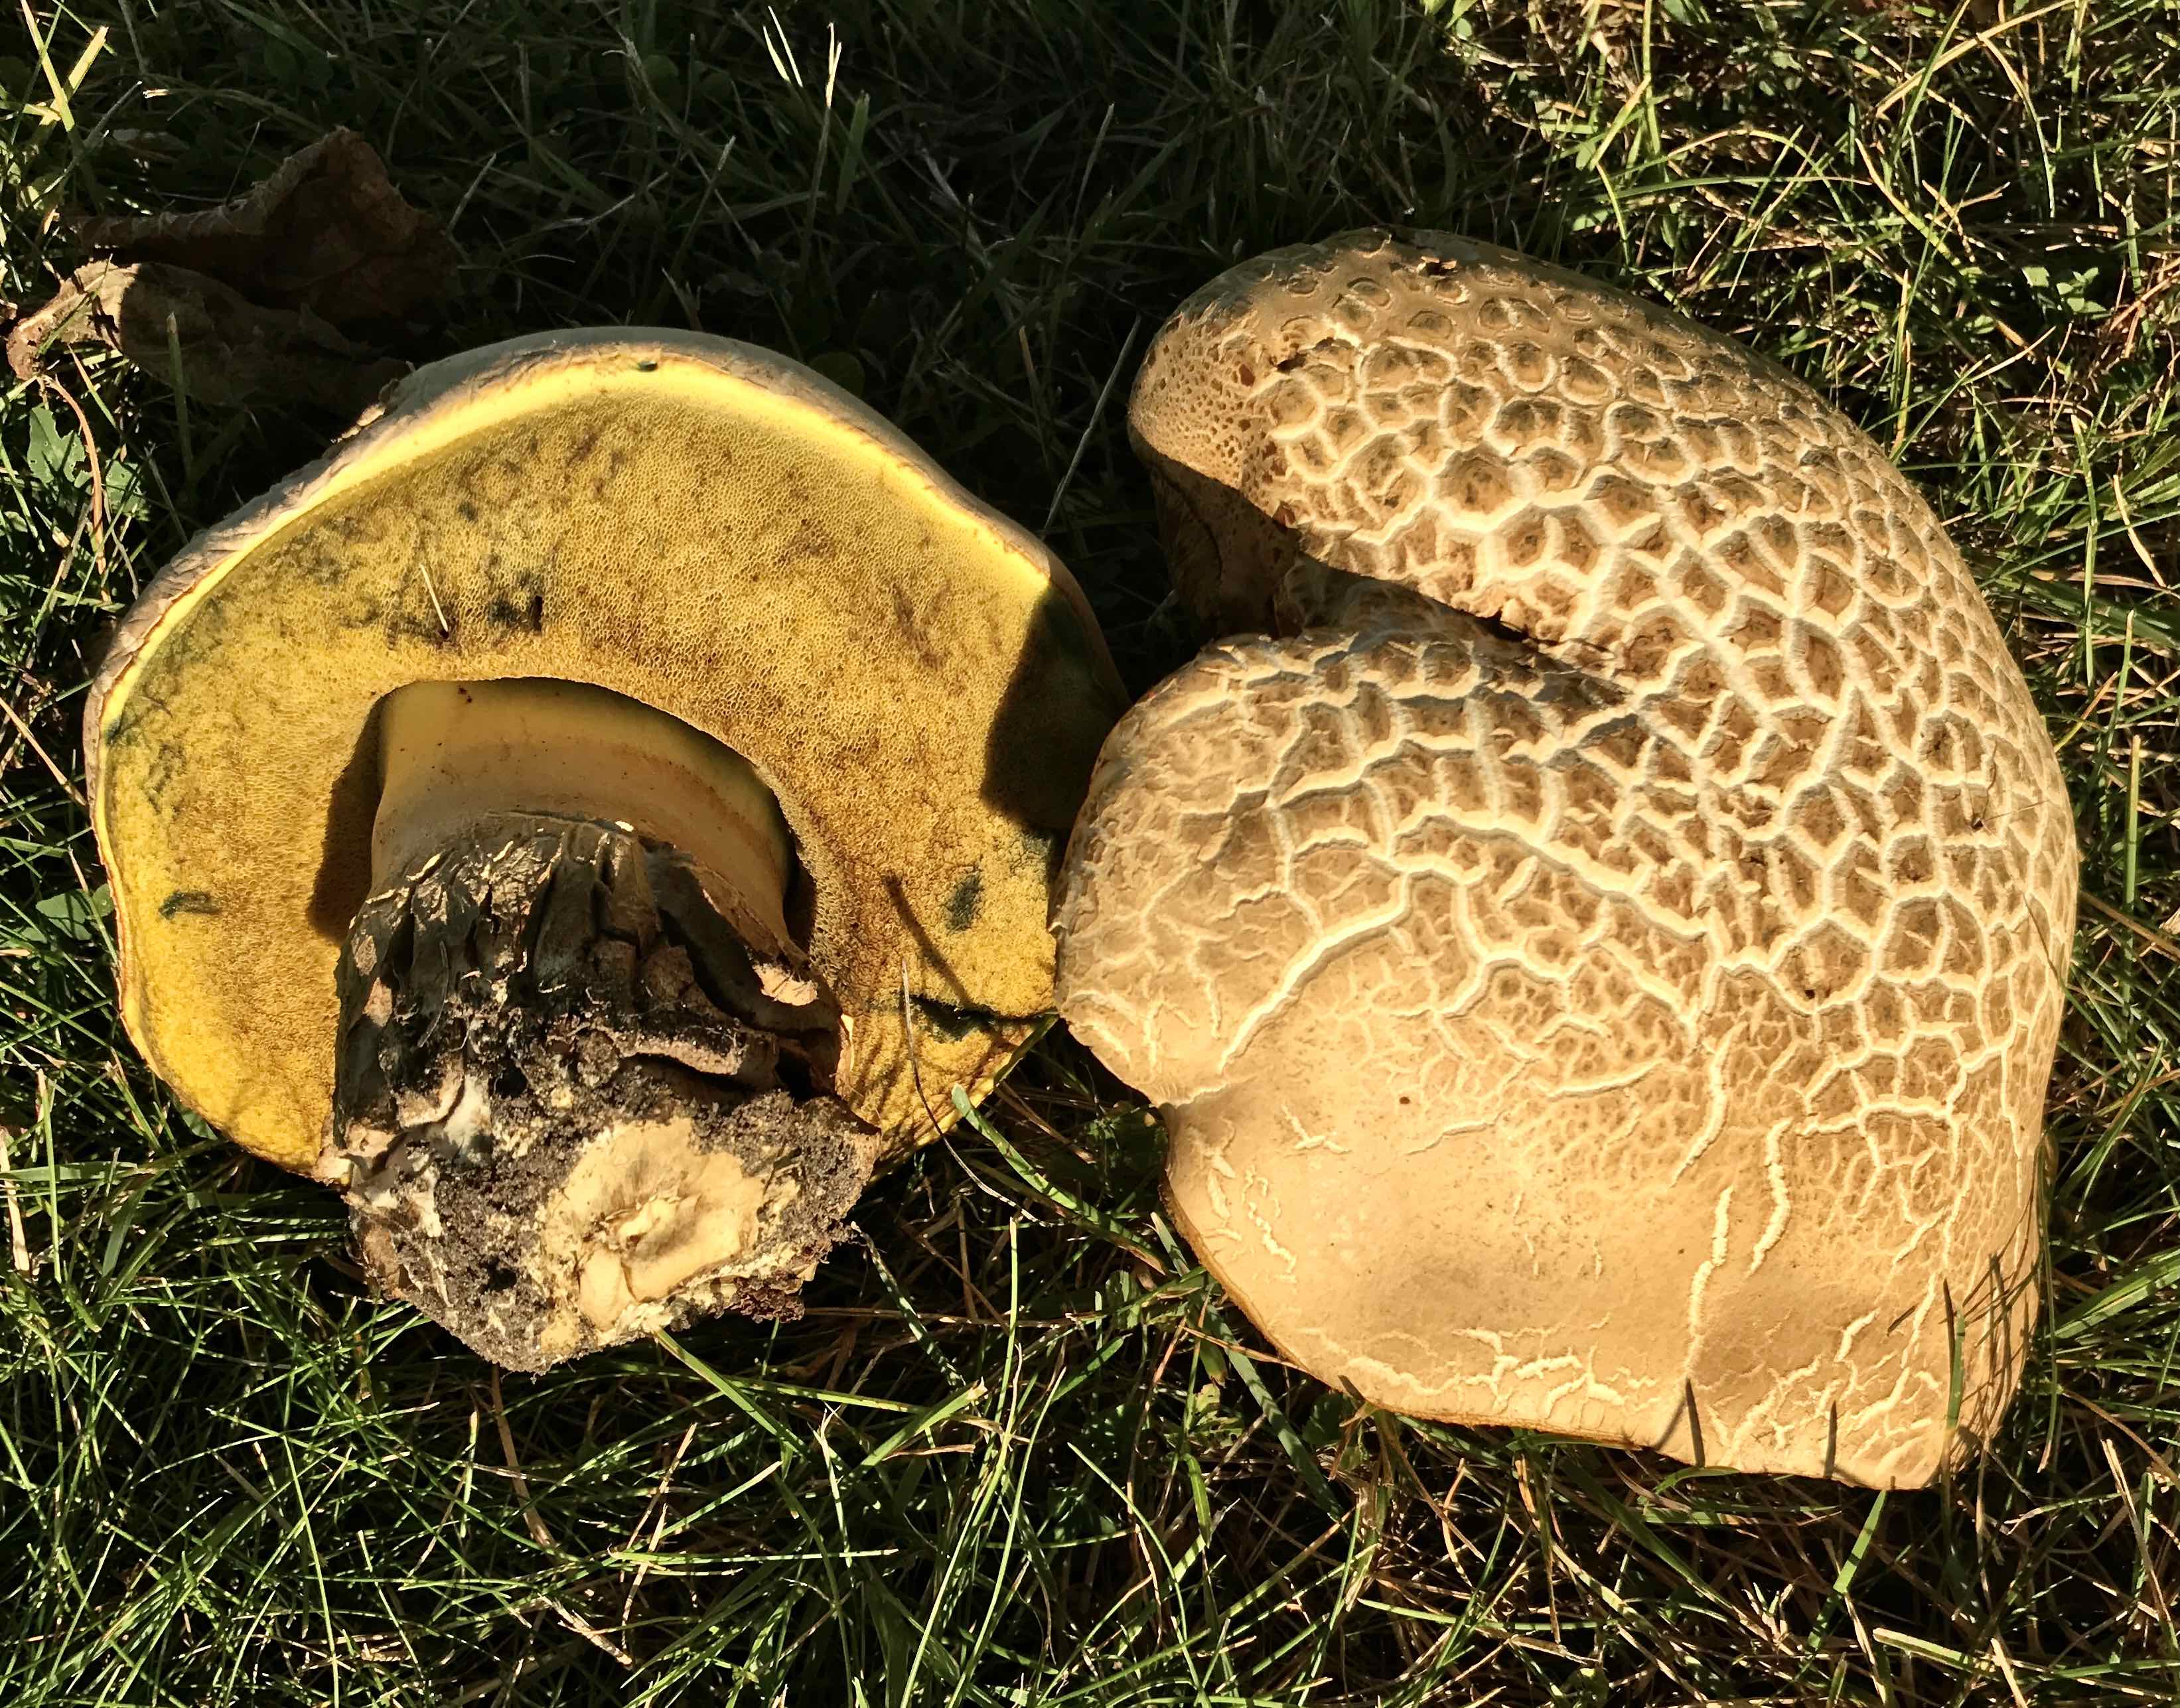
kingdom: Fungi
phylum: Basidiomycota
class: Agaricomycetes
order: Boletales
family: Boletaceae
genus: Caloboletus
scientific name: Caloboletus radicans
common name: rod-rørhat
